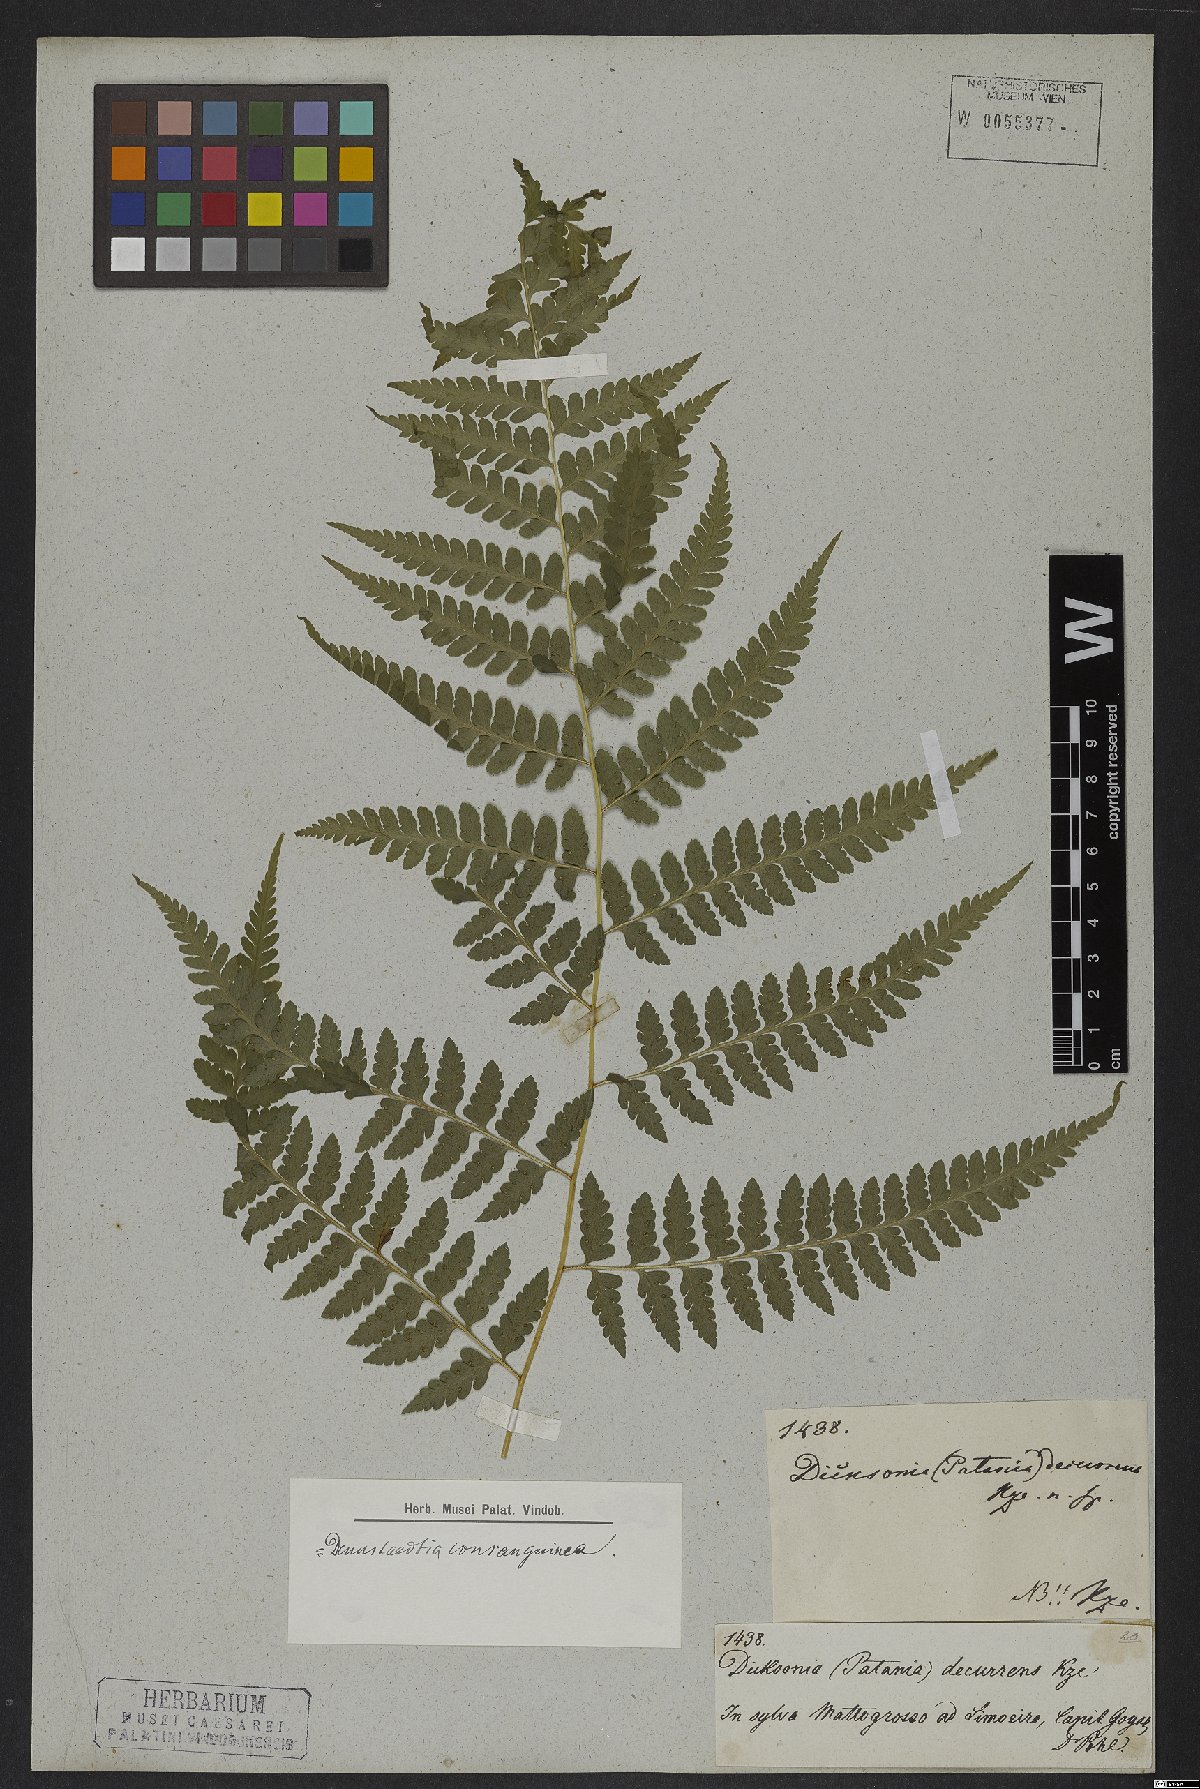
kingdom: Plantae
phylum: Tracheophyta
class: Polypodiopsida
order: Polypodiales
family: Dennstaedtiaceae
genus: Dennstaedtia
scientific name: Dennstaedtia arborescens
